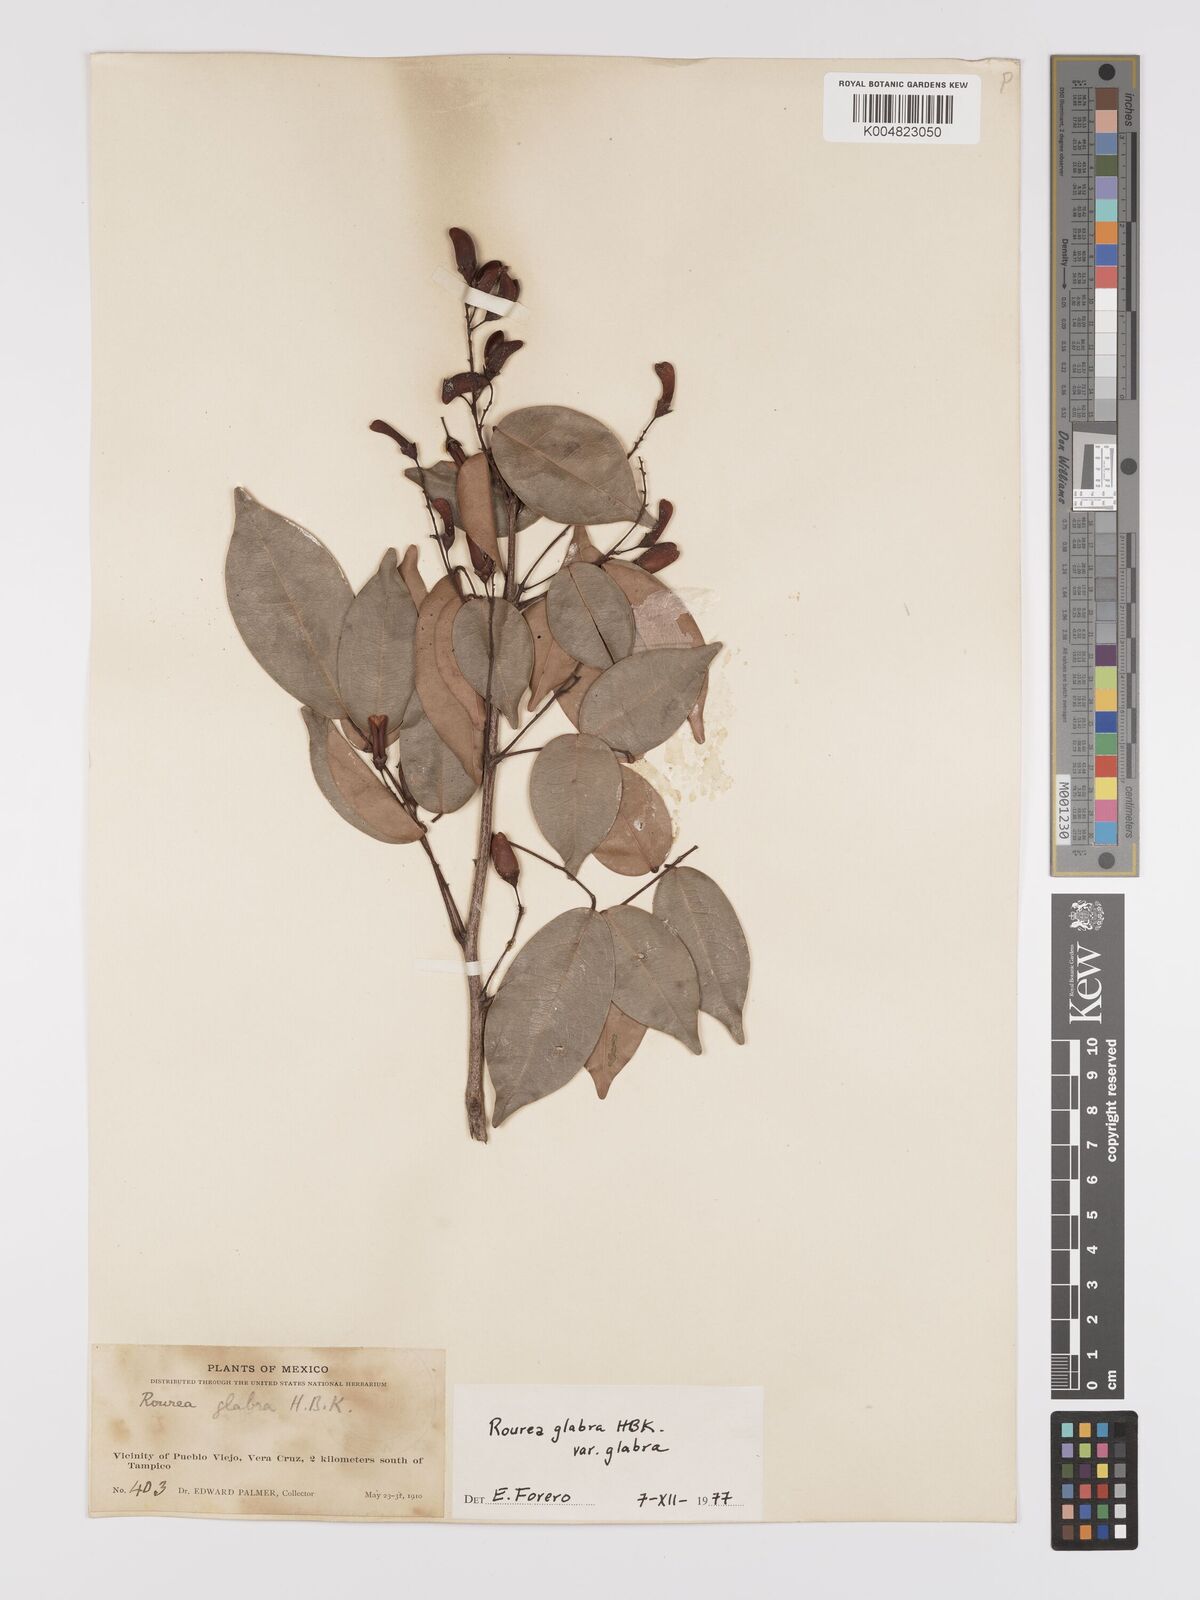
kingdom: Plantae
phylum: Tracheophyta
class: Magnoliopsida
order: Oxalidales
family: Connaraceae
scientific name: Connaraceae
